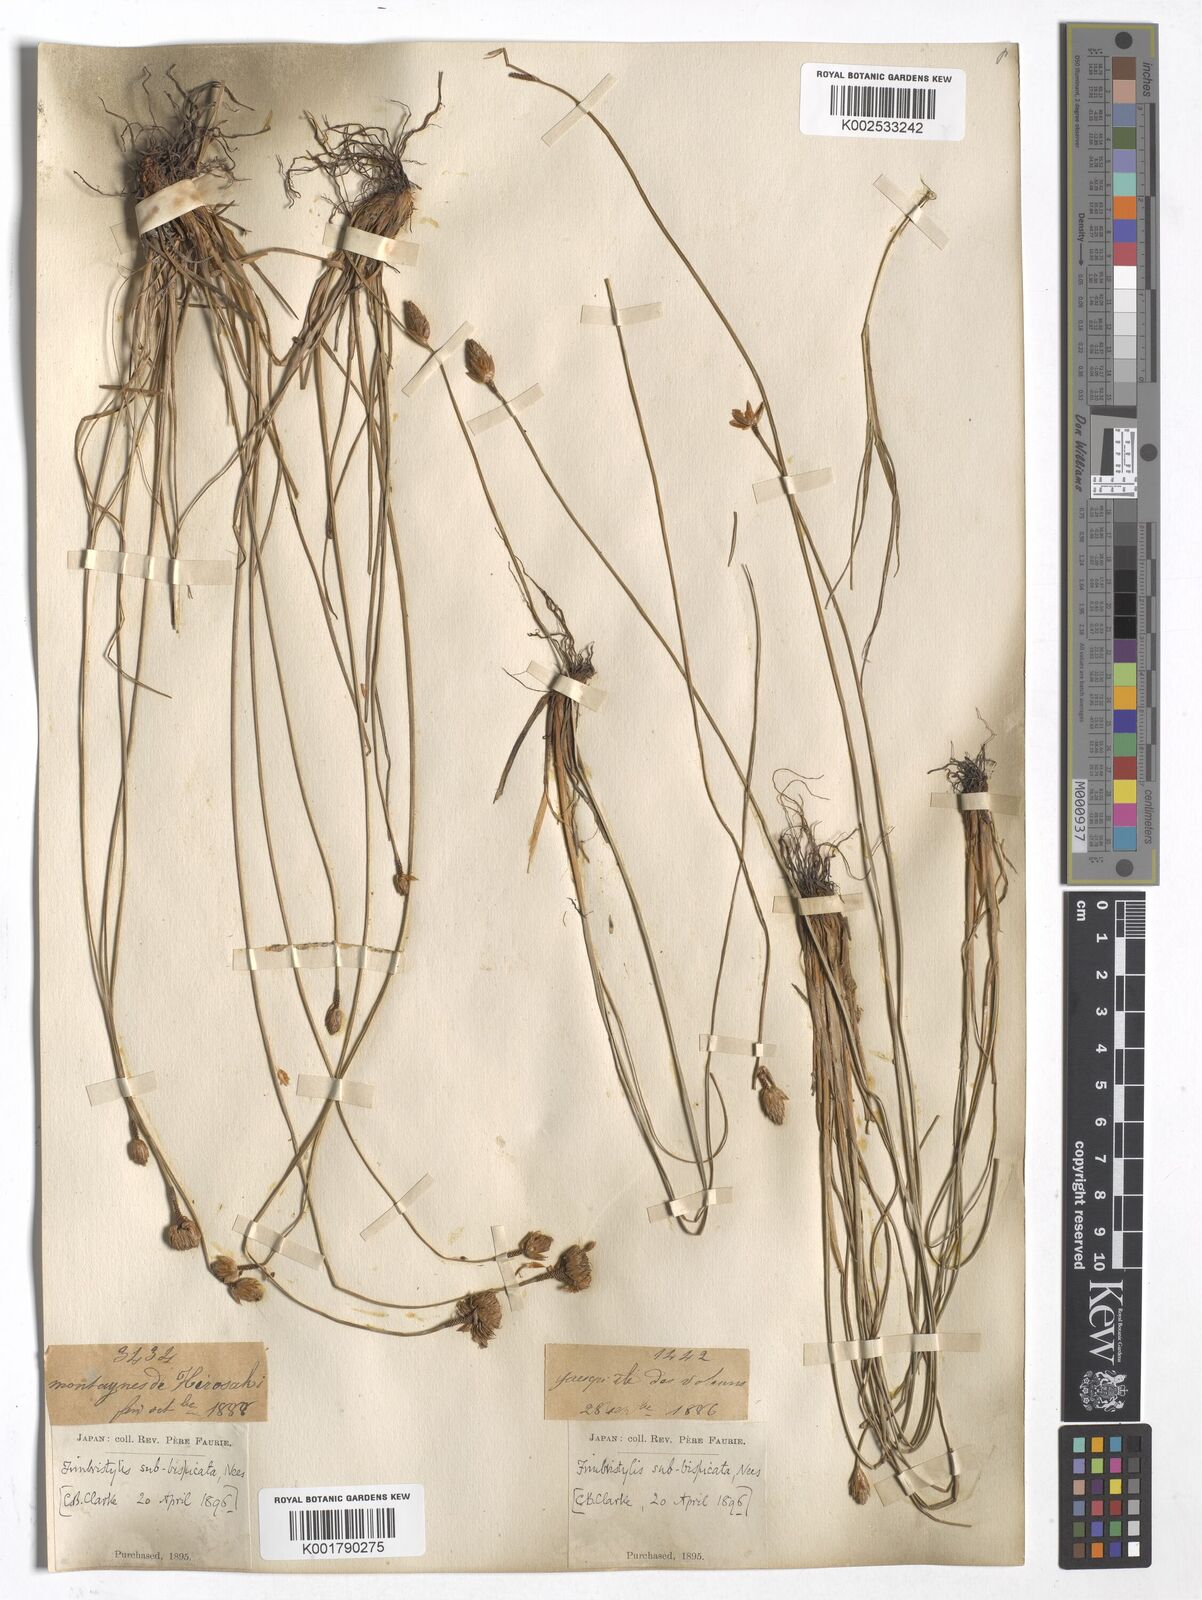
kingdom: Plantae
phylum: Tracheophyta
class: Liliopsida
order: Poales
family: Cyperaceae
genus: Fimbristylis
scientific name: Fimbristylis tristachya
